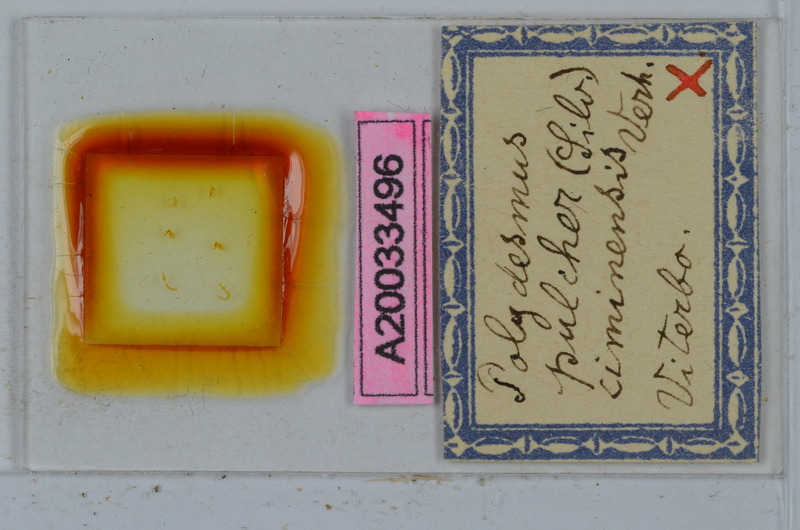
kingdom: Animalia
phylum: Arthropoda
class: Diplopoda
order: Polydesmida
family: Polydesmidae
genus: Polydesmus
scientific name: Polydesmus pulcher
